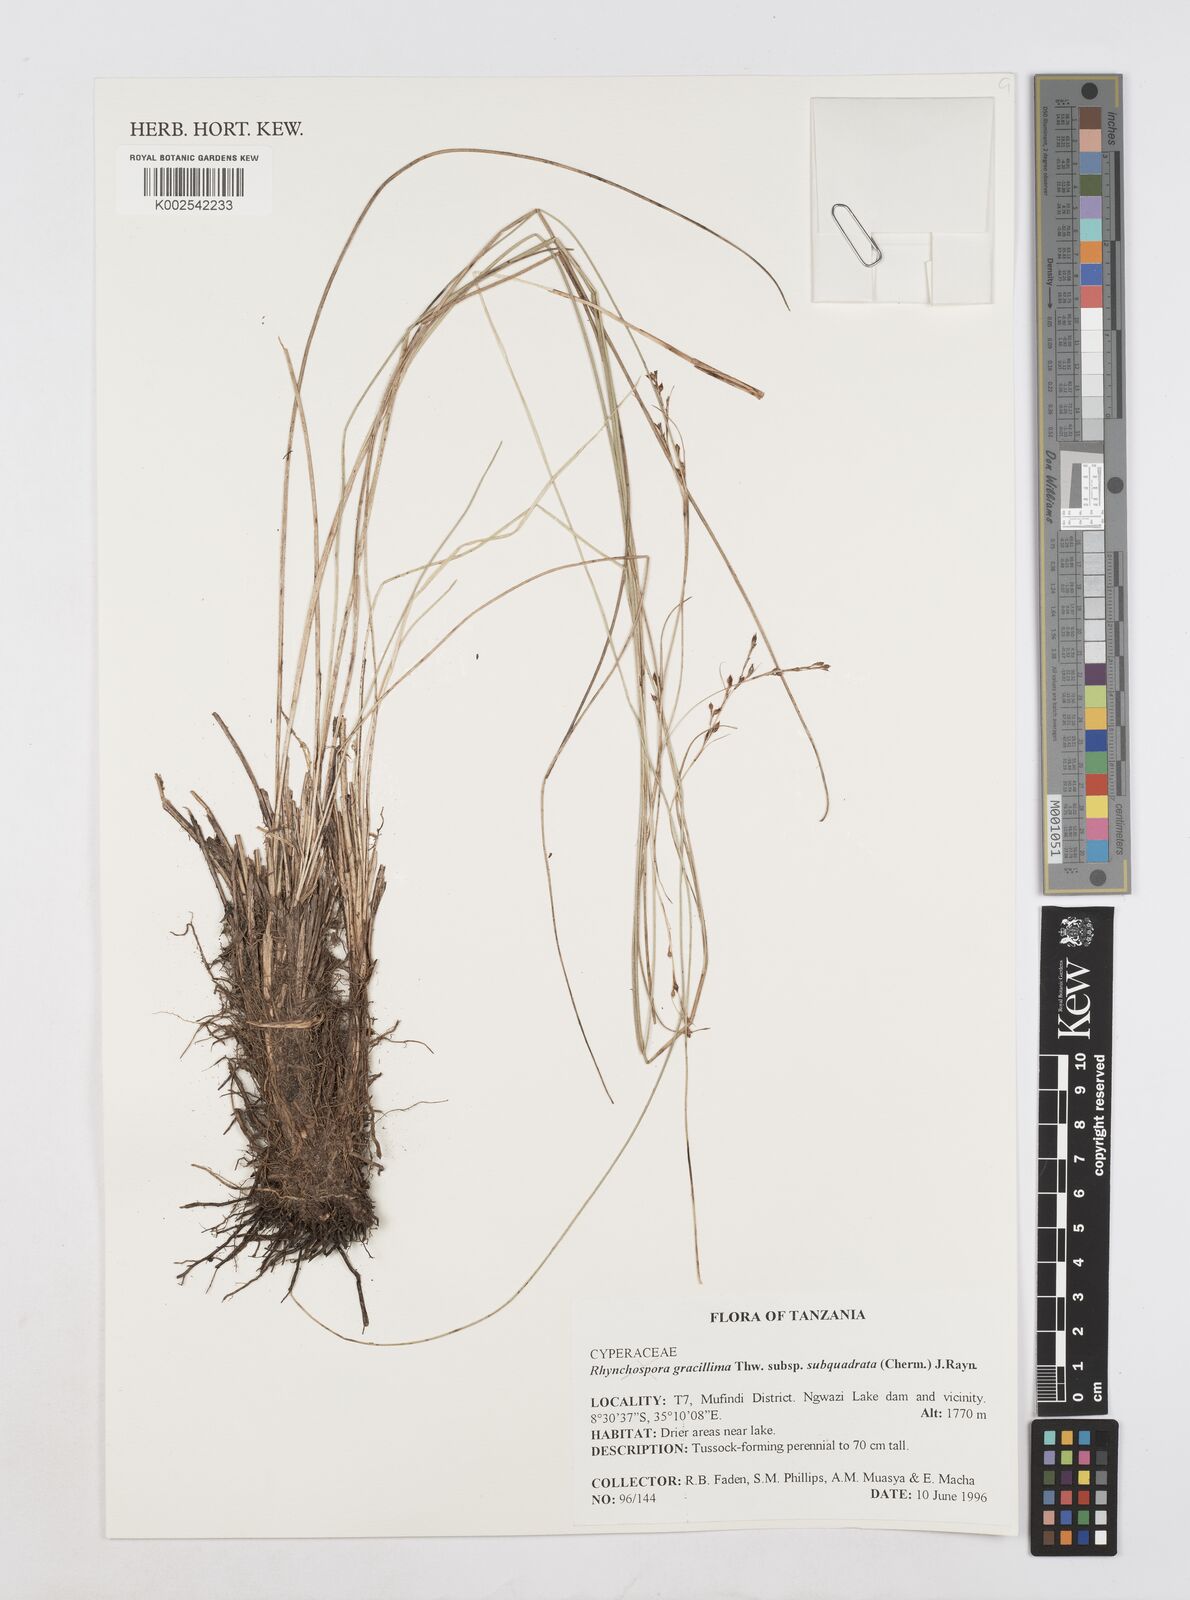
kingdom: Plantae
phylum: Tracheophyta
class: Liliopsida
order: Poales
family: Cyperaceae
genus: Cyperus
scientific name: Cyperus
